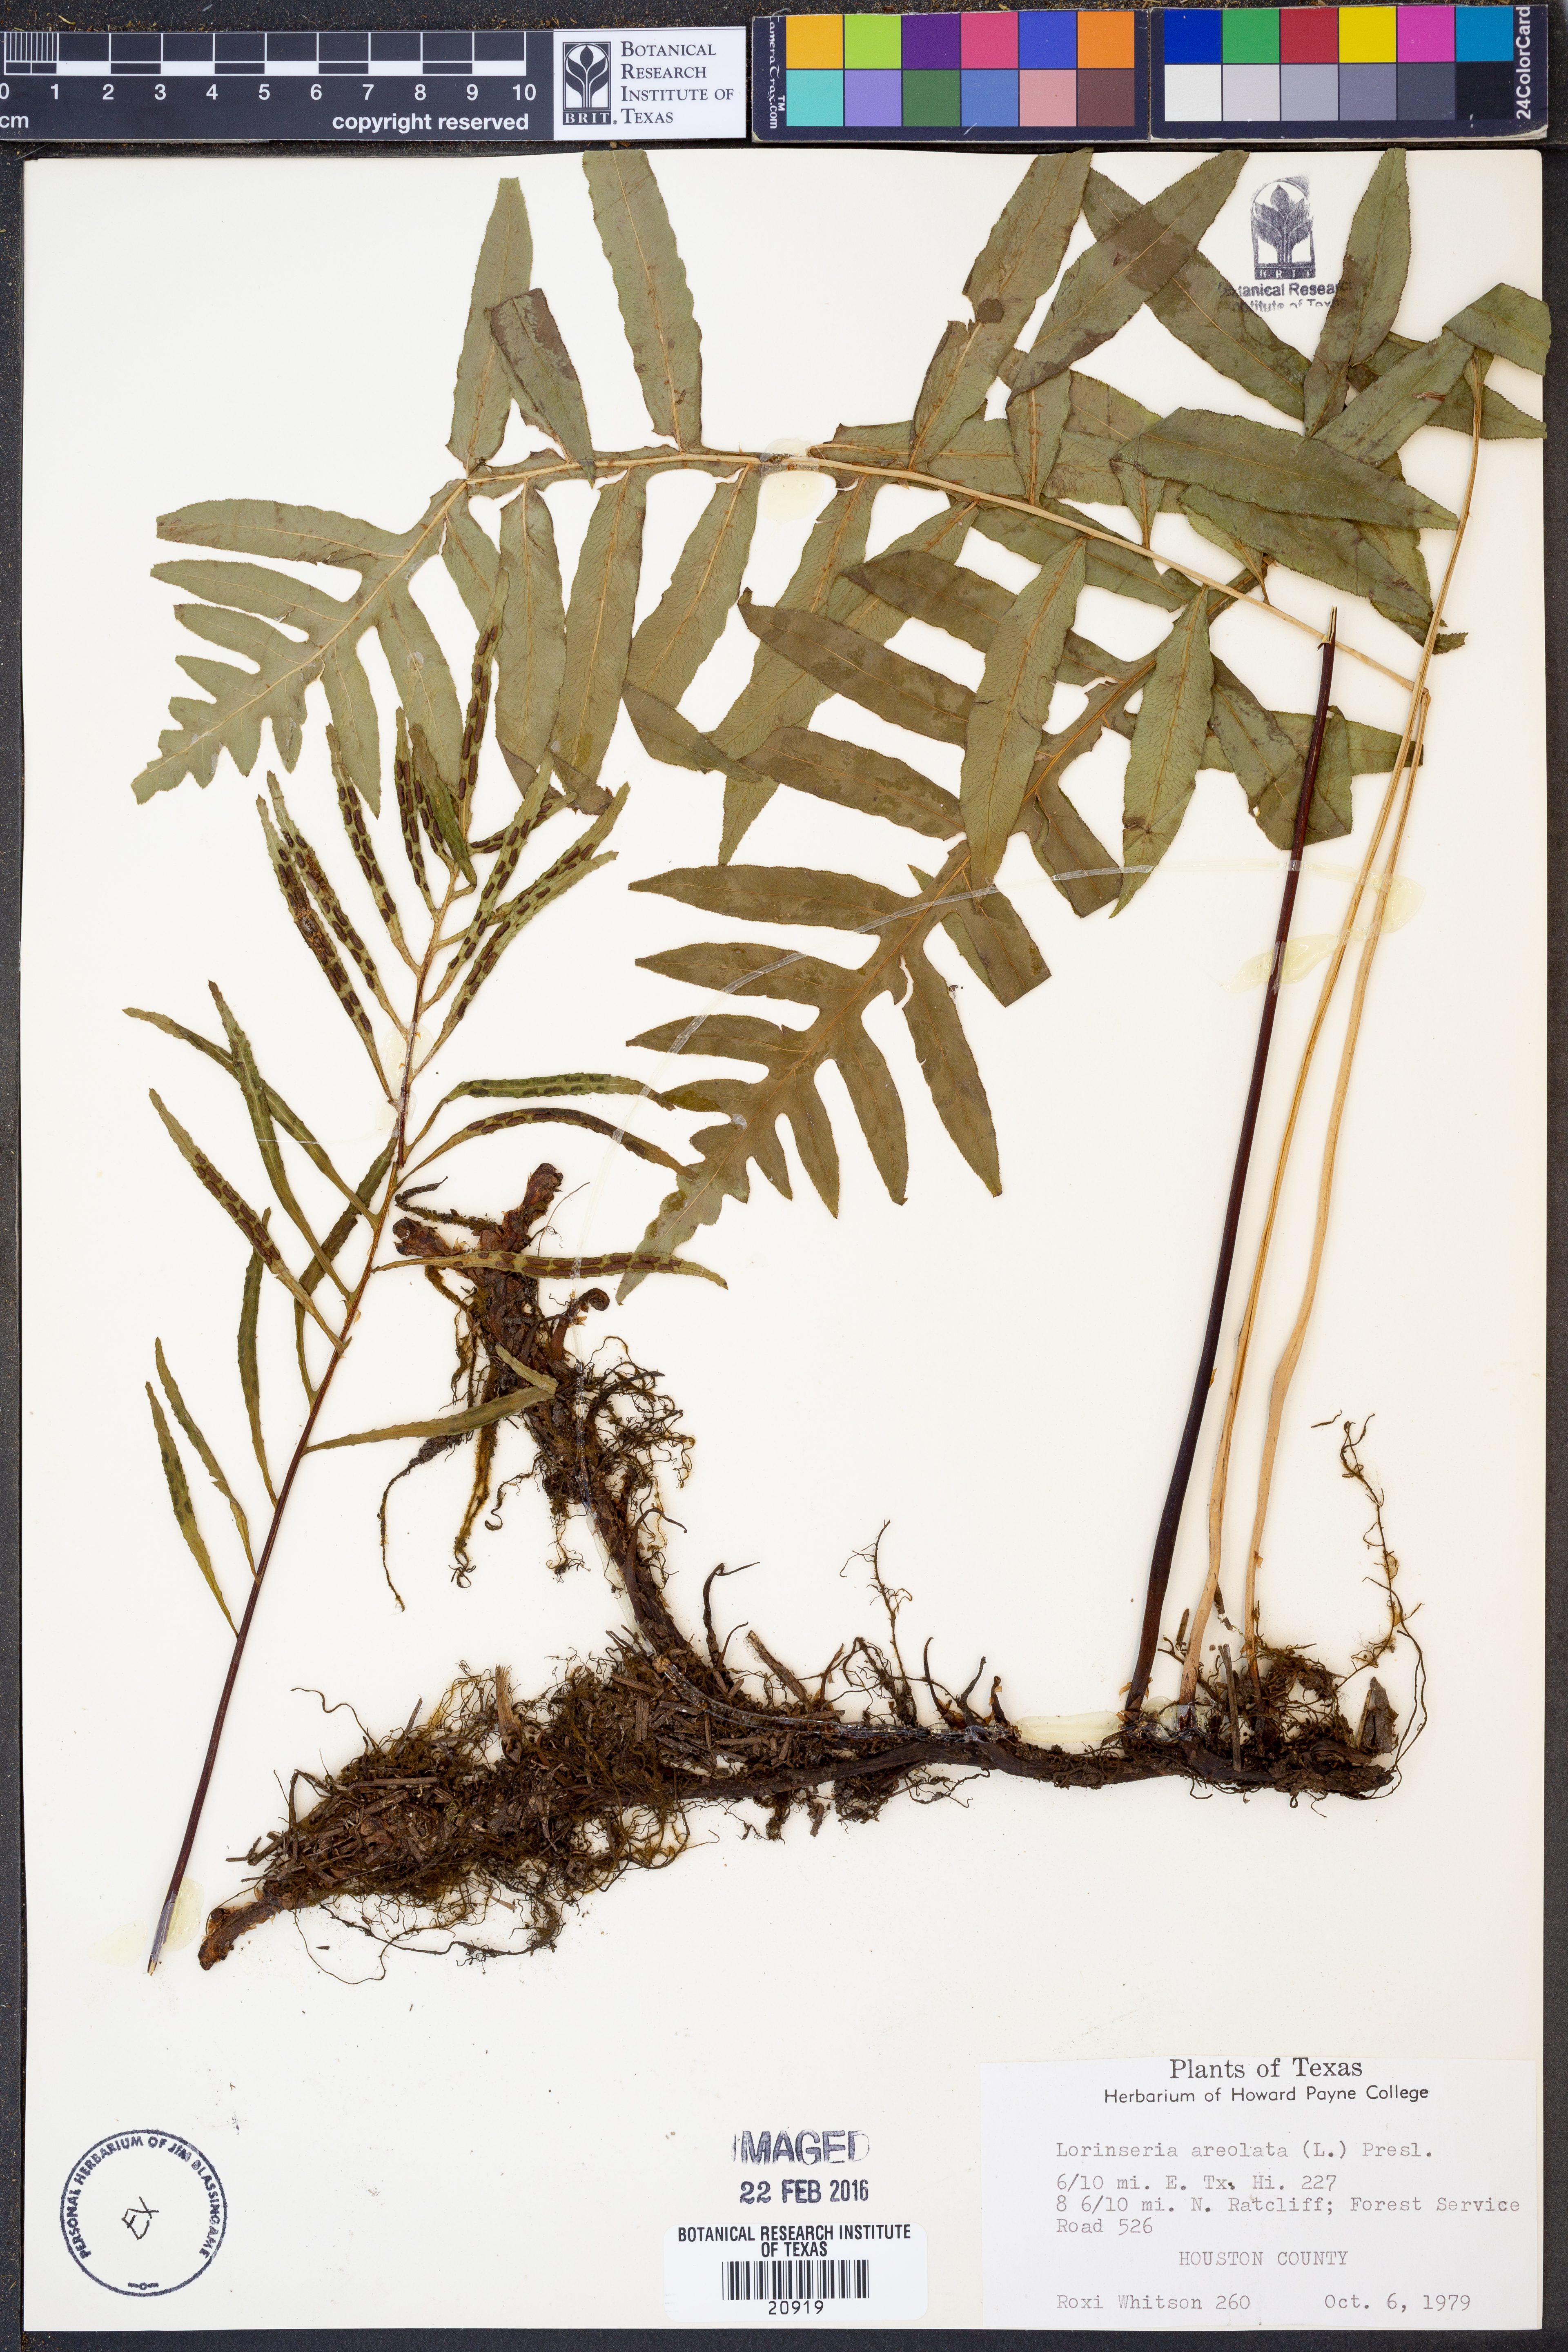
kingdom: Plantae
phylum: Tracheophyta
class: Polypodiopsida
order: Polypodiales
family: Blechnaceae
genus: Lorinseria
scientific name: Lorinseria areolata
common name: Dwarf chain fern
